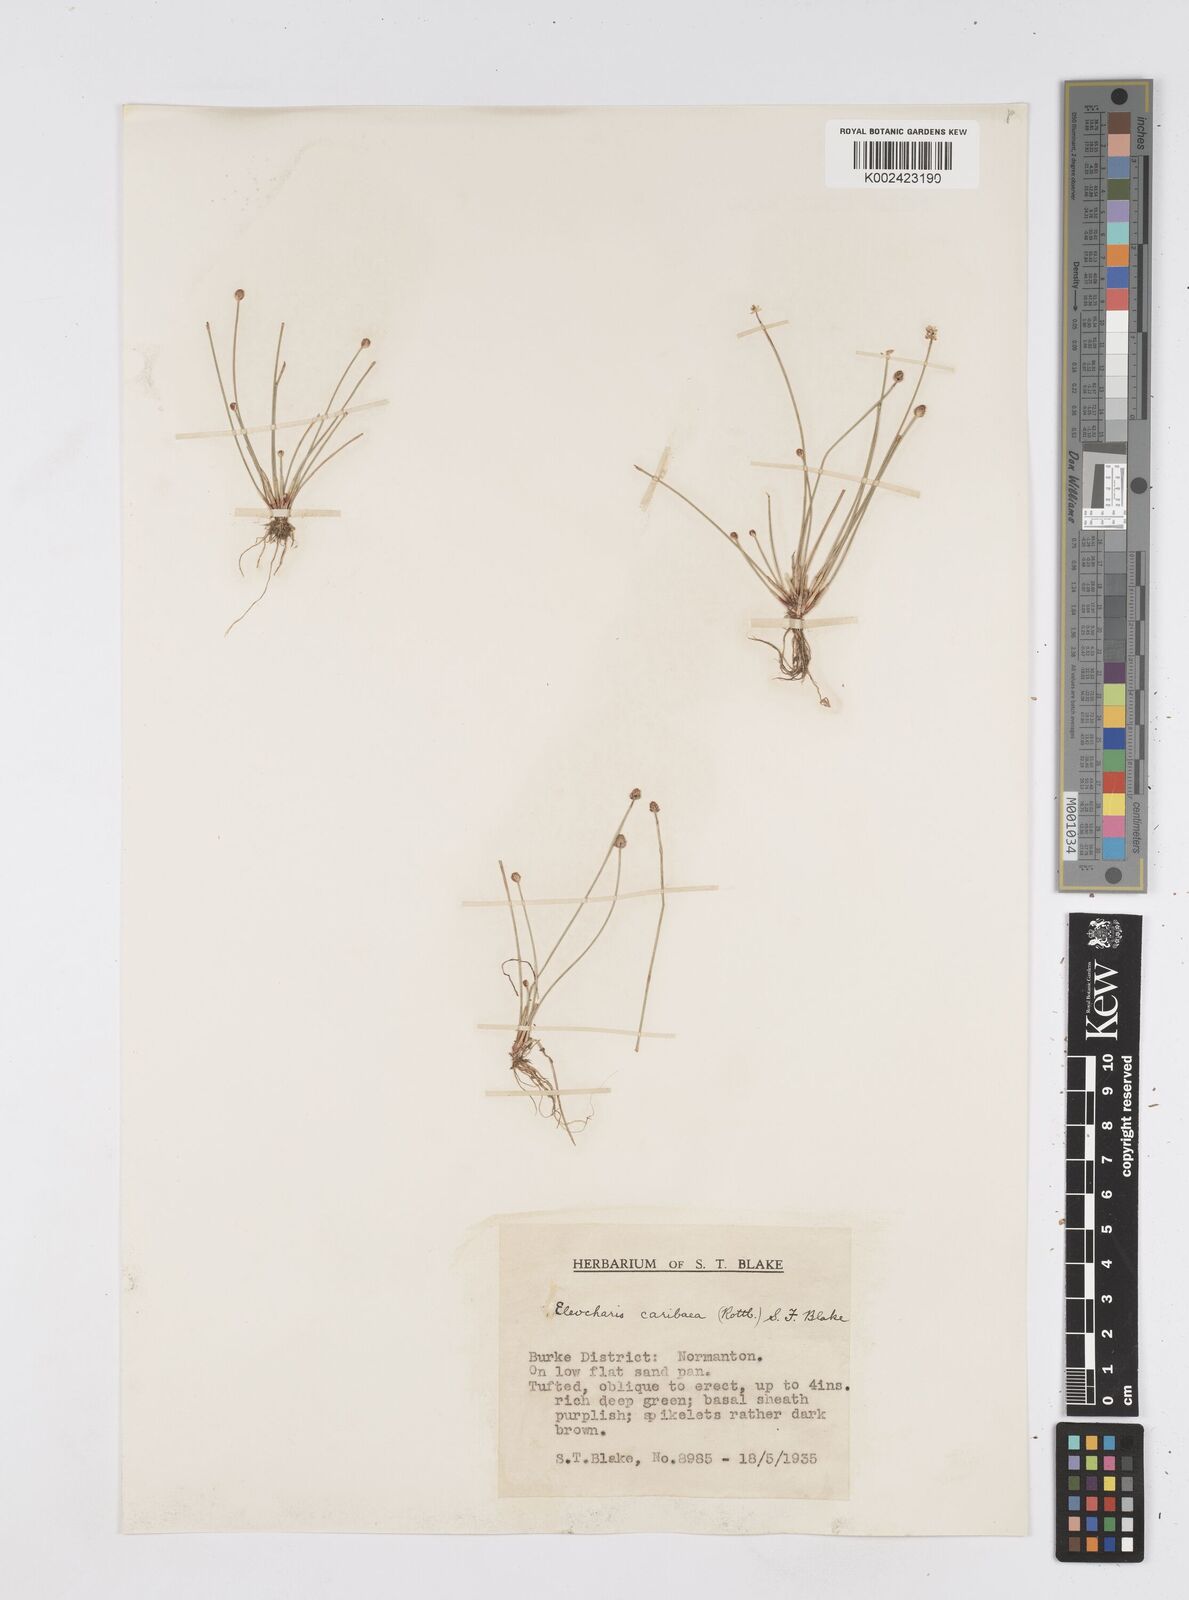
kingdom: Plantae
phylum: Tracheophyta
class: Liliopsida
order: Poales
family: Cyperaceae
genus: Eleocharis
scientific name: Eleocharis geniculata
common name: Canada spikesedge
